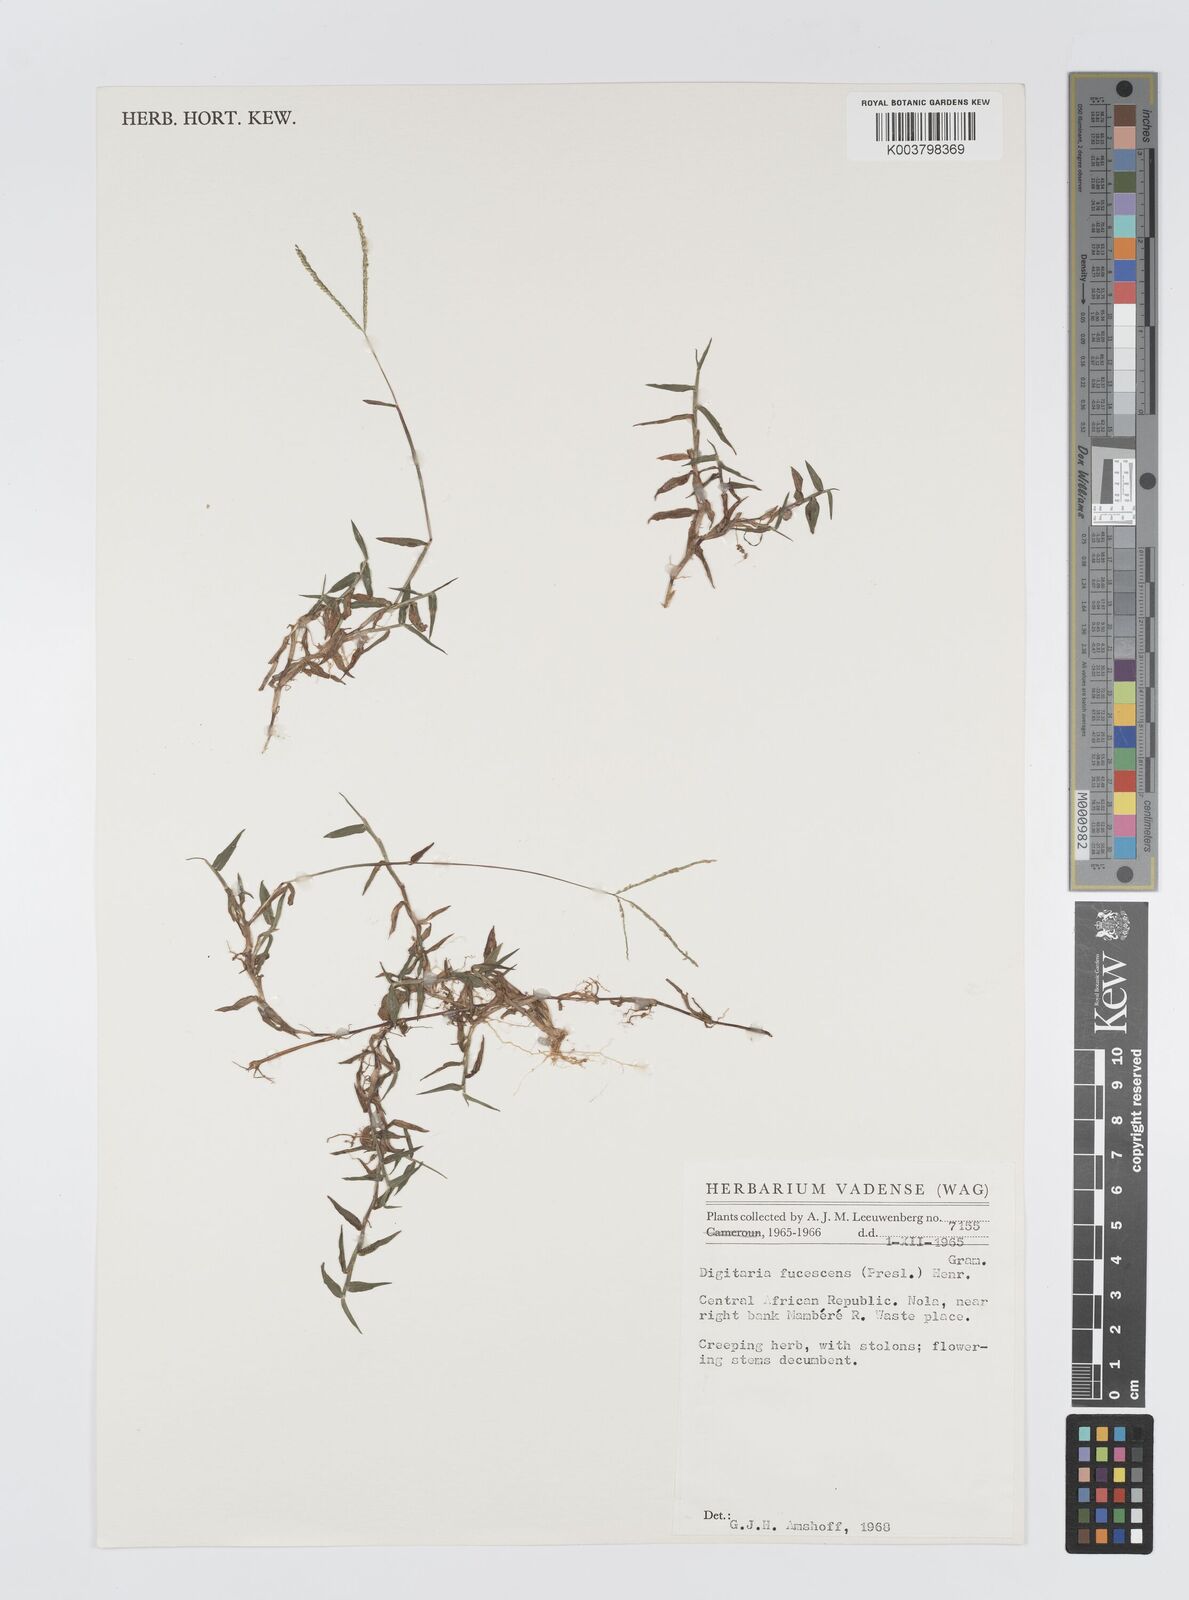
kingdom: Plantae
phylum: Tracheophyta
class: Liliopsida
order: Poales
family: Poaceae
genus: Digitaria
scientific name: Digitaria fuscescens
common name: Yellow crabgrass
